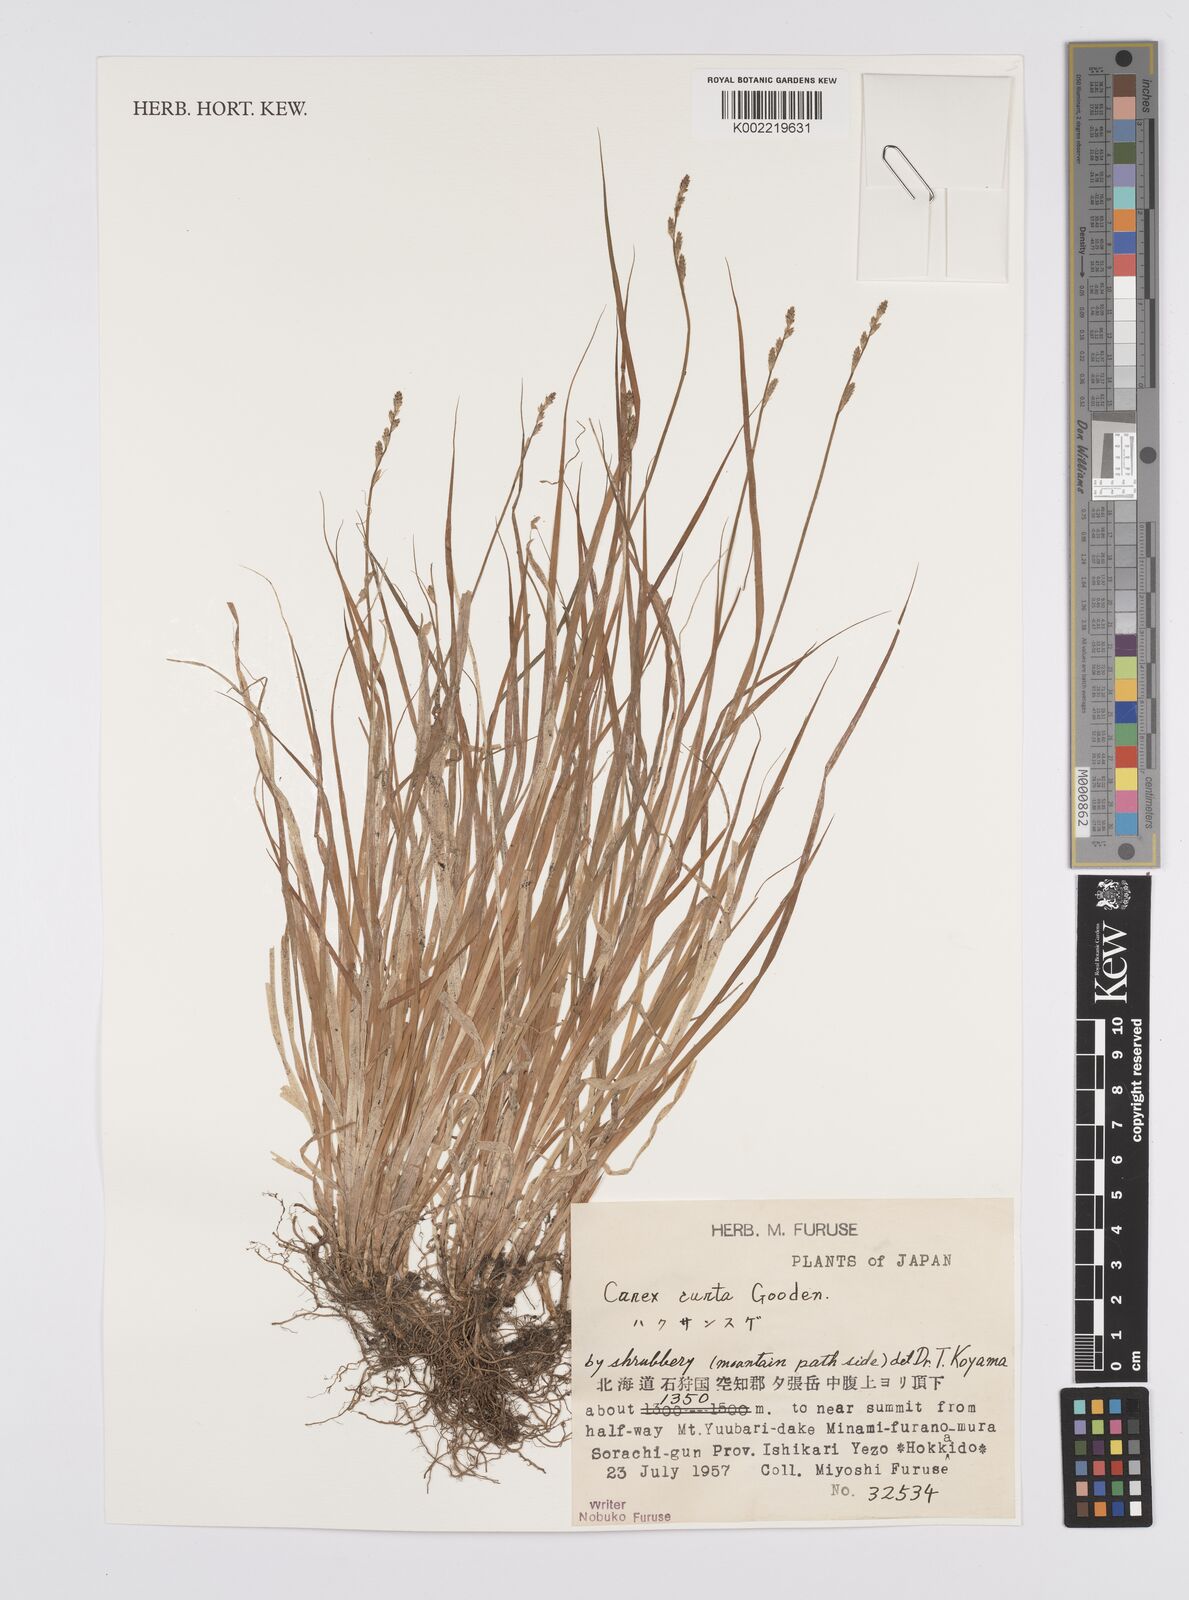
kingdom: Plantae
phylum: Tracheophyta
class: Liliopsida
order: Poales
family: Cyperaceae
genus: Carex
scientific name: Carex canescens
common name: White sedge
